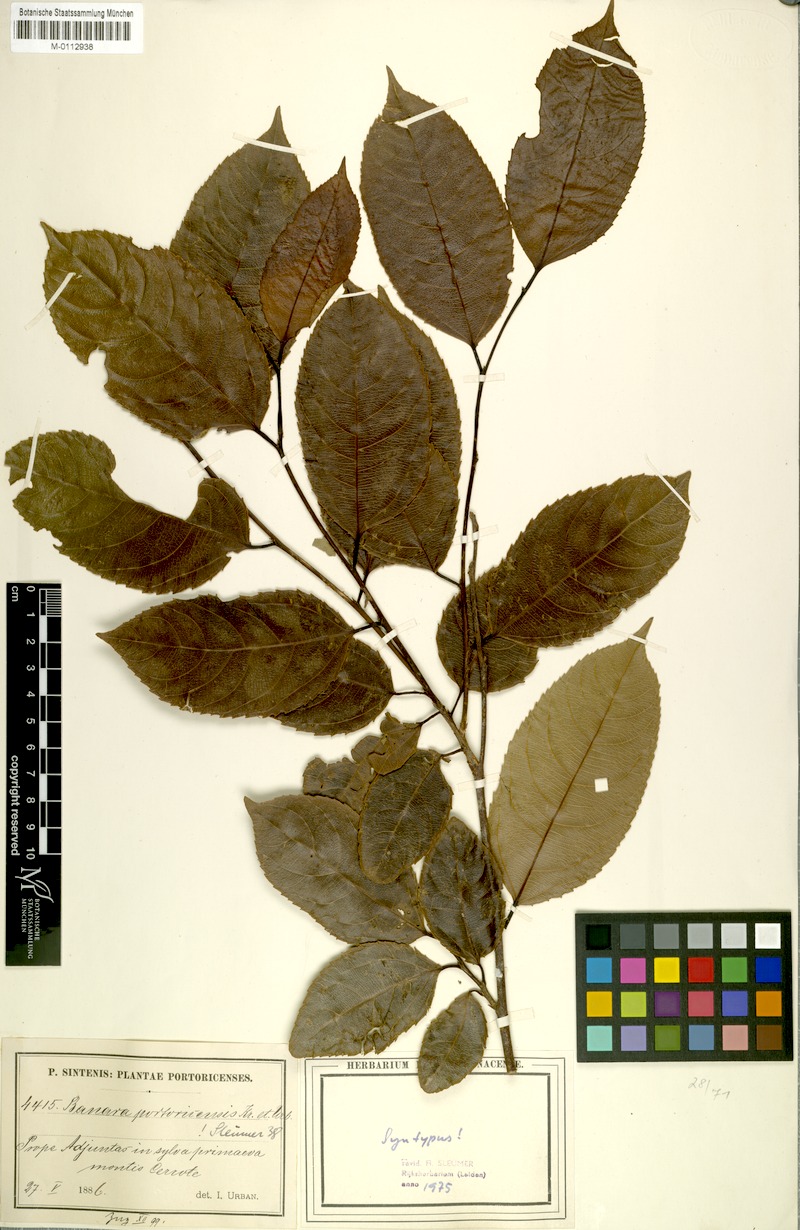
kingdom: Plantae
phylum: Tracheophyta
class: Magnoliopsida
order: Malpighiales
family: Salicaceae
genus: Banara
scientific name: Banara portoricensis
